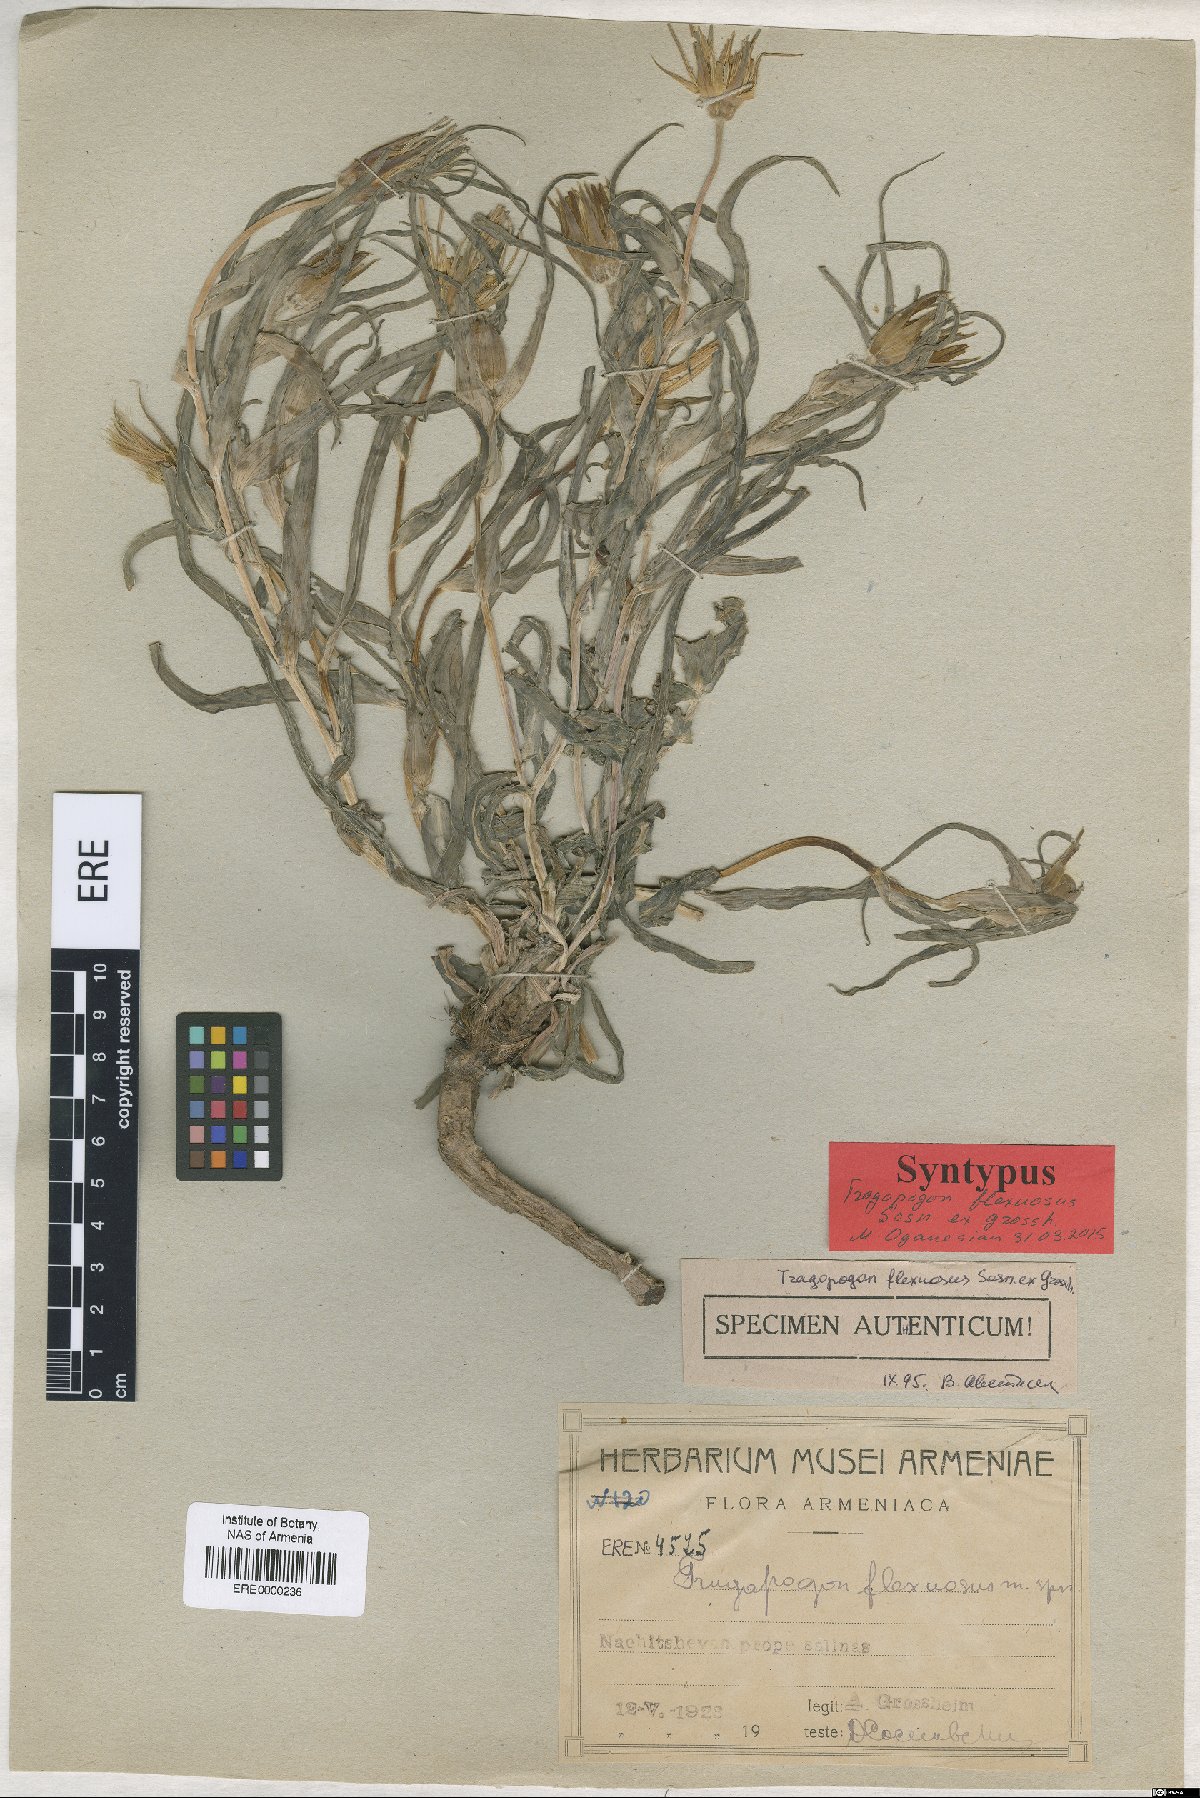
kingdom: Plantae
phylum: Tracheophyta
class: Magnoliopsida
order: Asterales
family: Asteraceae
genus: Tragopogon
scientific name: Tragopogon marginatus
